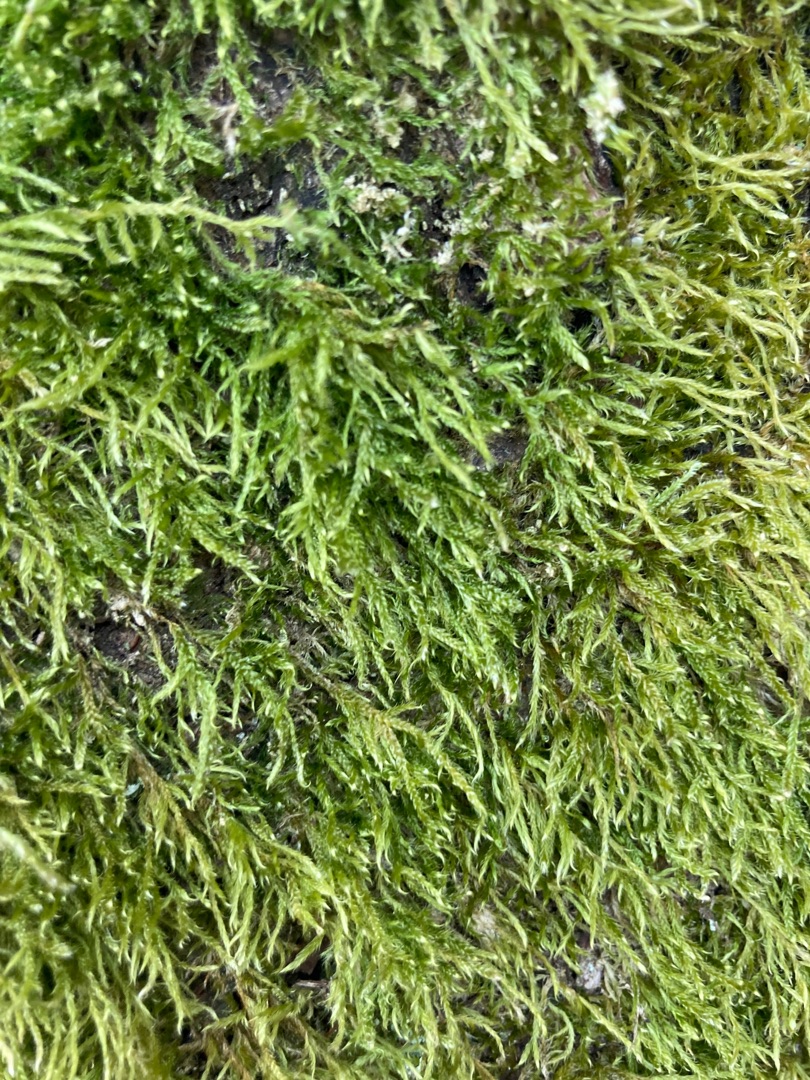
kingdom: Plantae
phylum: Bryophyta
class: Bryopsida
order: Hypnales
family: Hypnaceae
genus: Hypnum
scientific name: Hypnum
